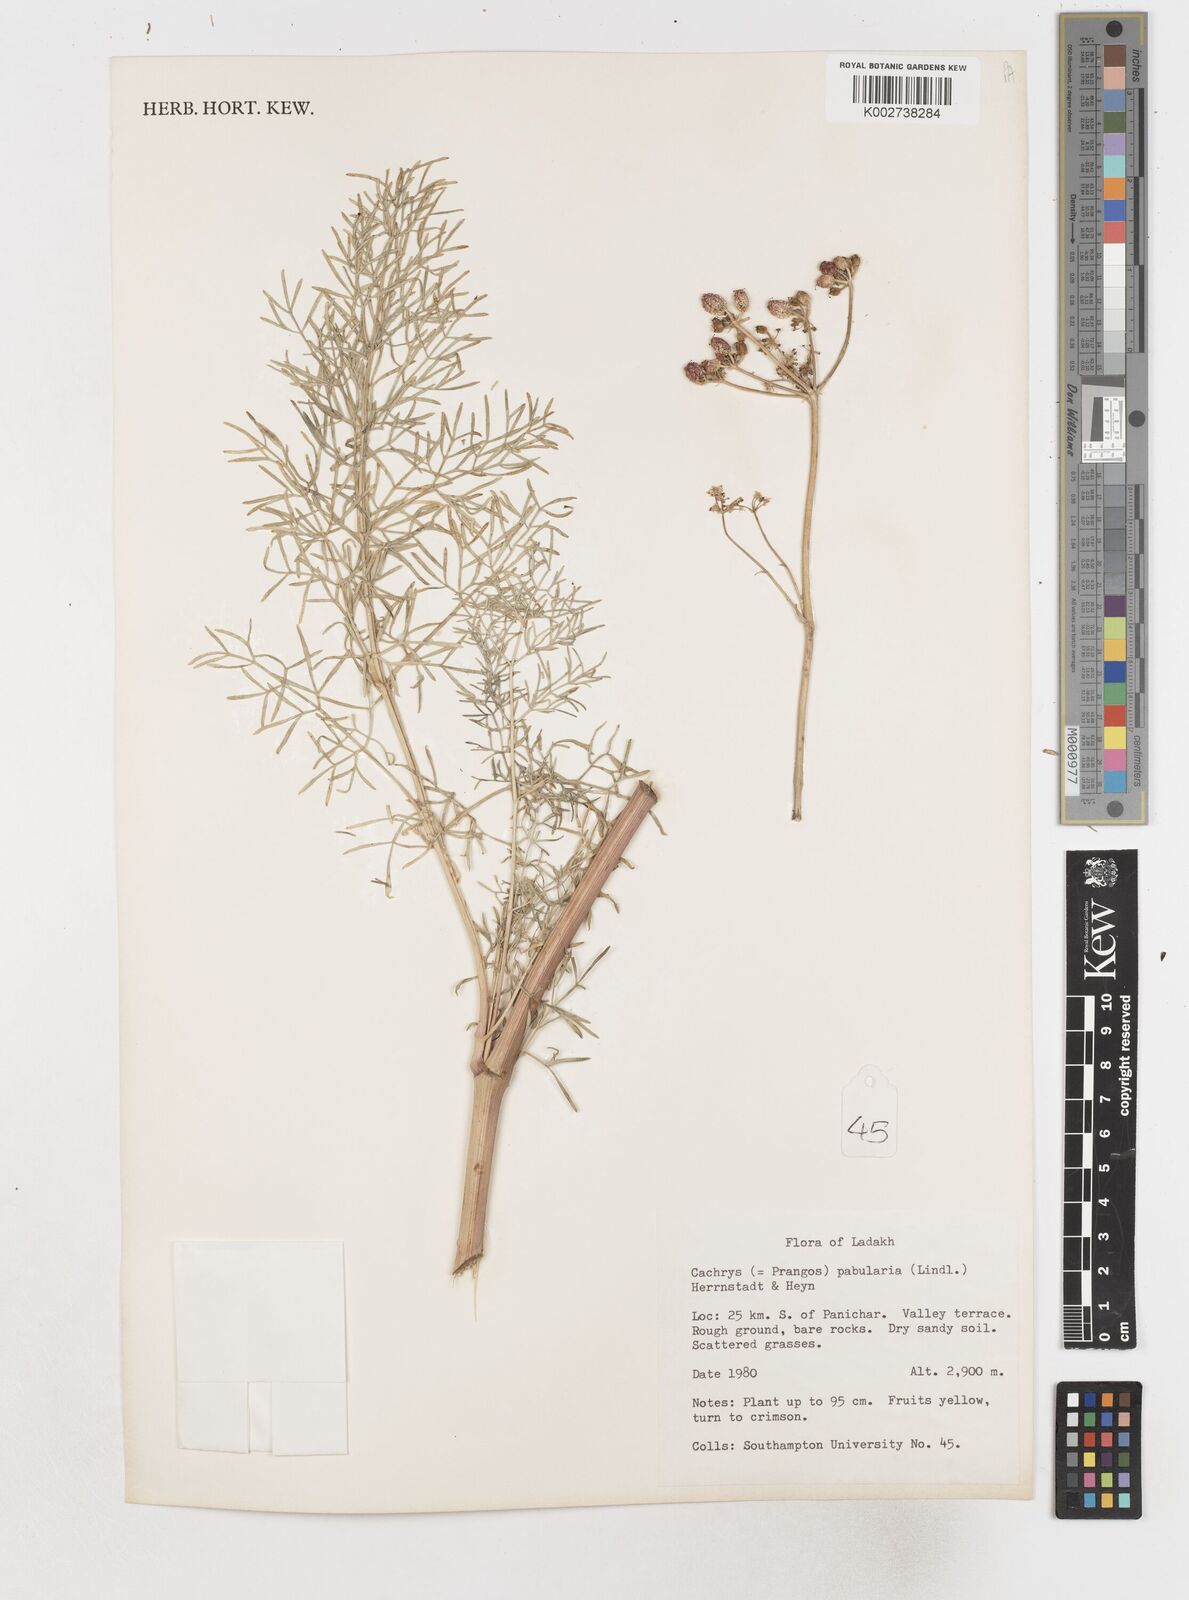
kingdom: Plantae
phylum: Tracheophyta
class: Magnoliopsida
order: Apiales
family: Apiaceae
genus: Prangos
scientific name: Prangos
